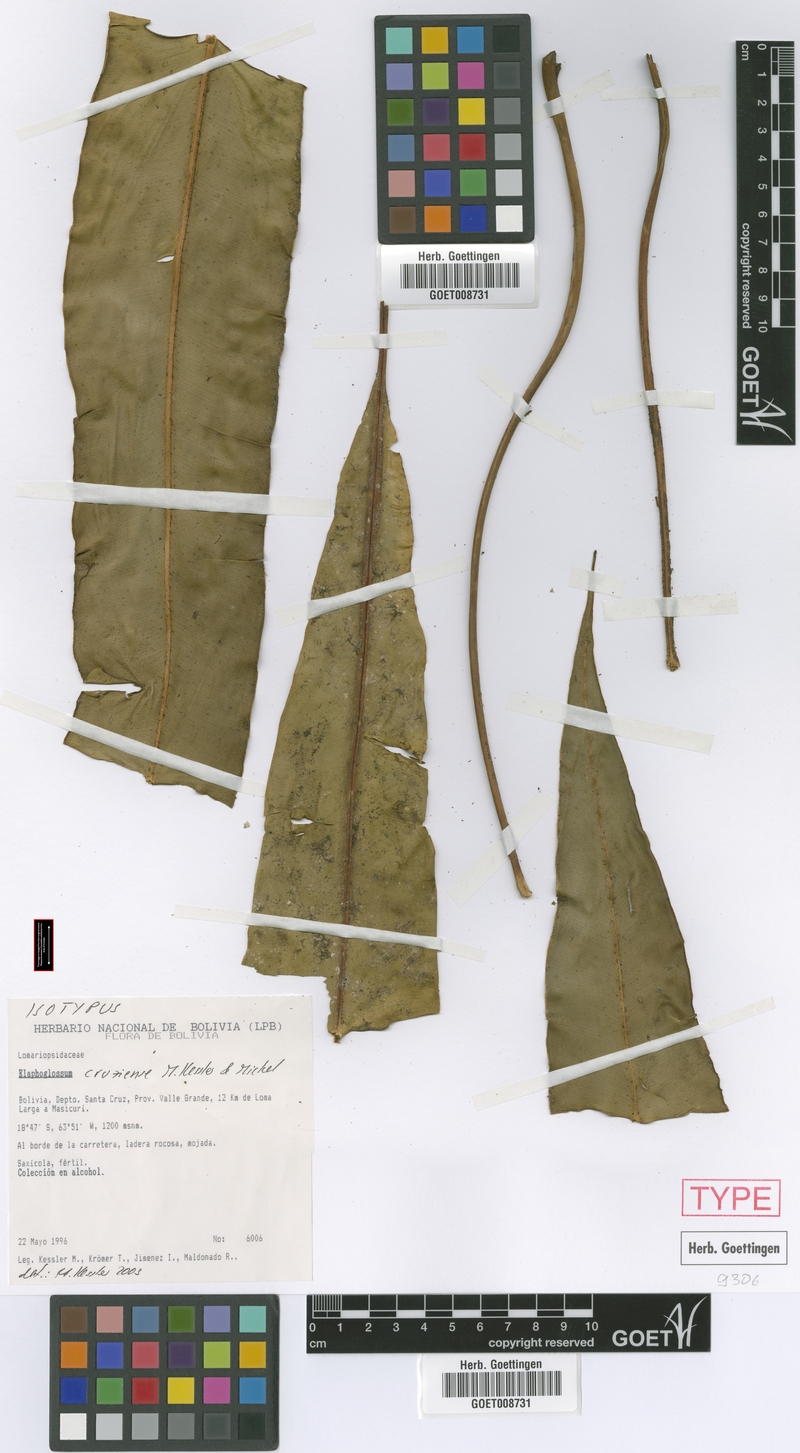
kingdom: Plantae
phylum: Tracheophyta
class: Polypodiopsida
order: Polypodiales
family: Dryopteridaceae
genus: Elaphoglossum
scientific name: Elaphoglossum cruzense
